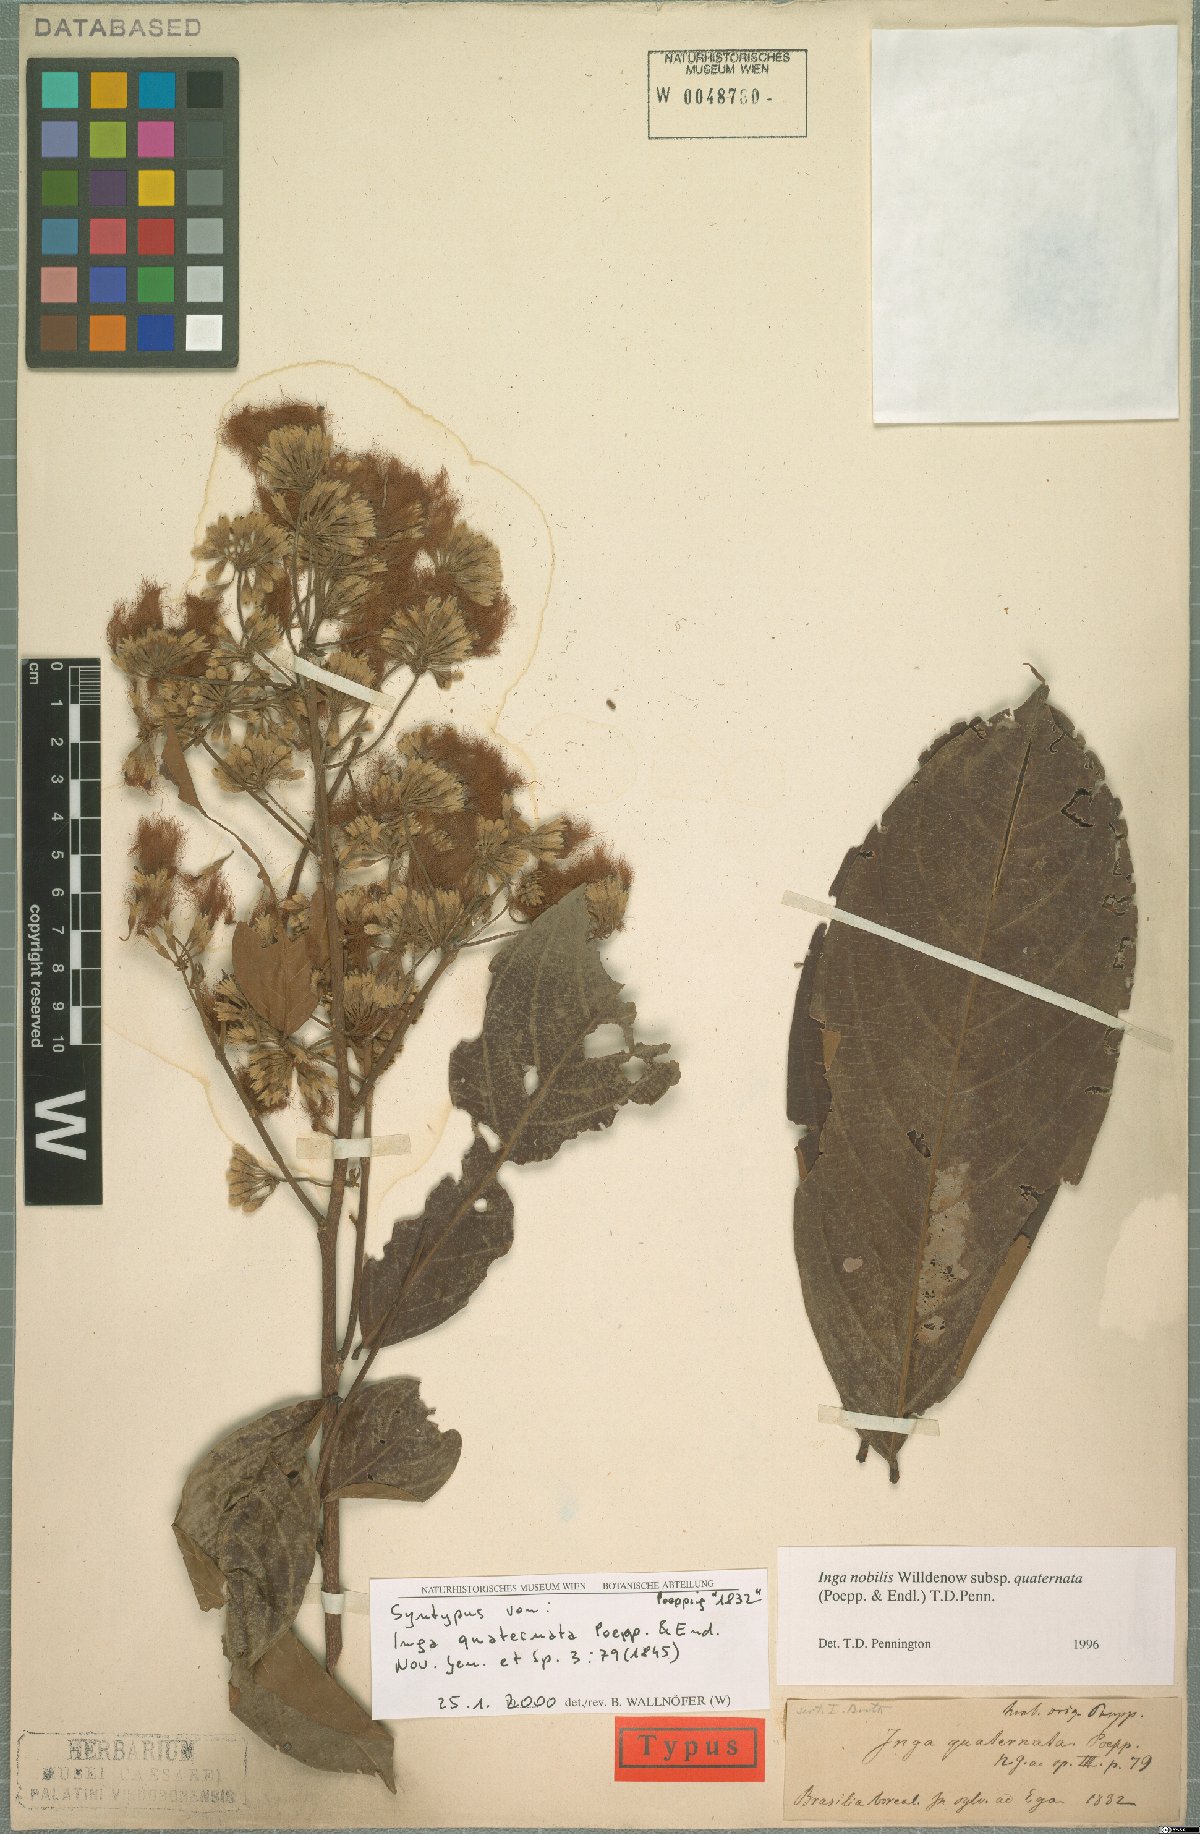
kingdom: Plantae
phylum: Tracheophyta
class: Magnoliopsida
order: Fabales
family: Fabaceae
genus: Inga
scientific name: Inga nobilis
